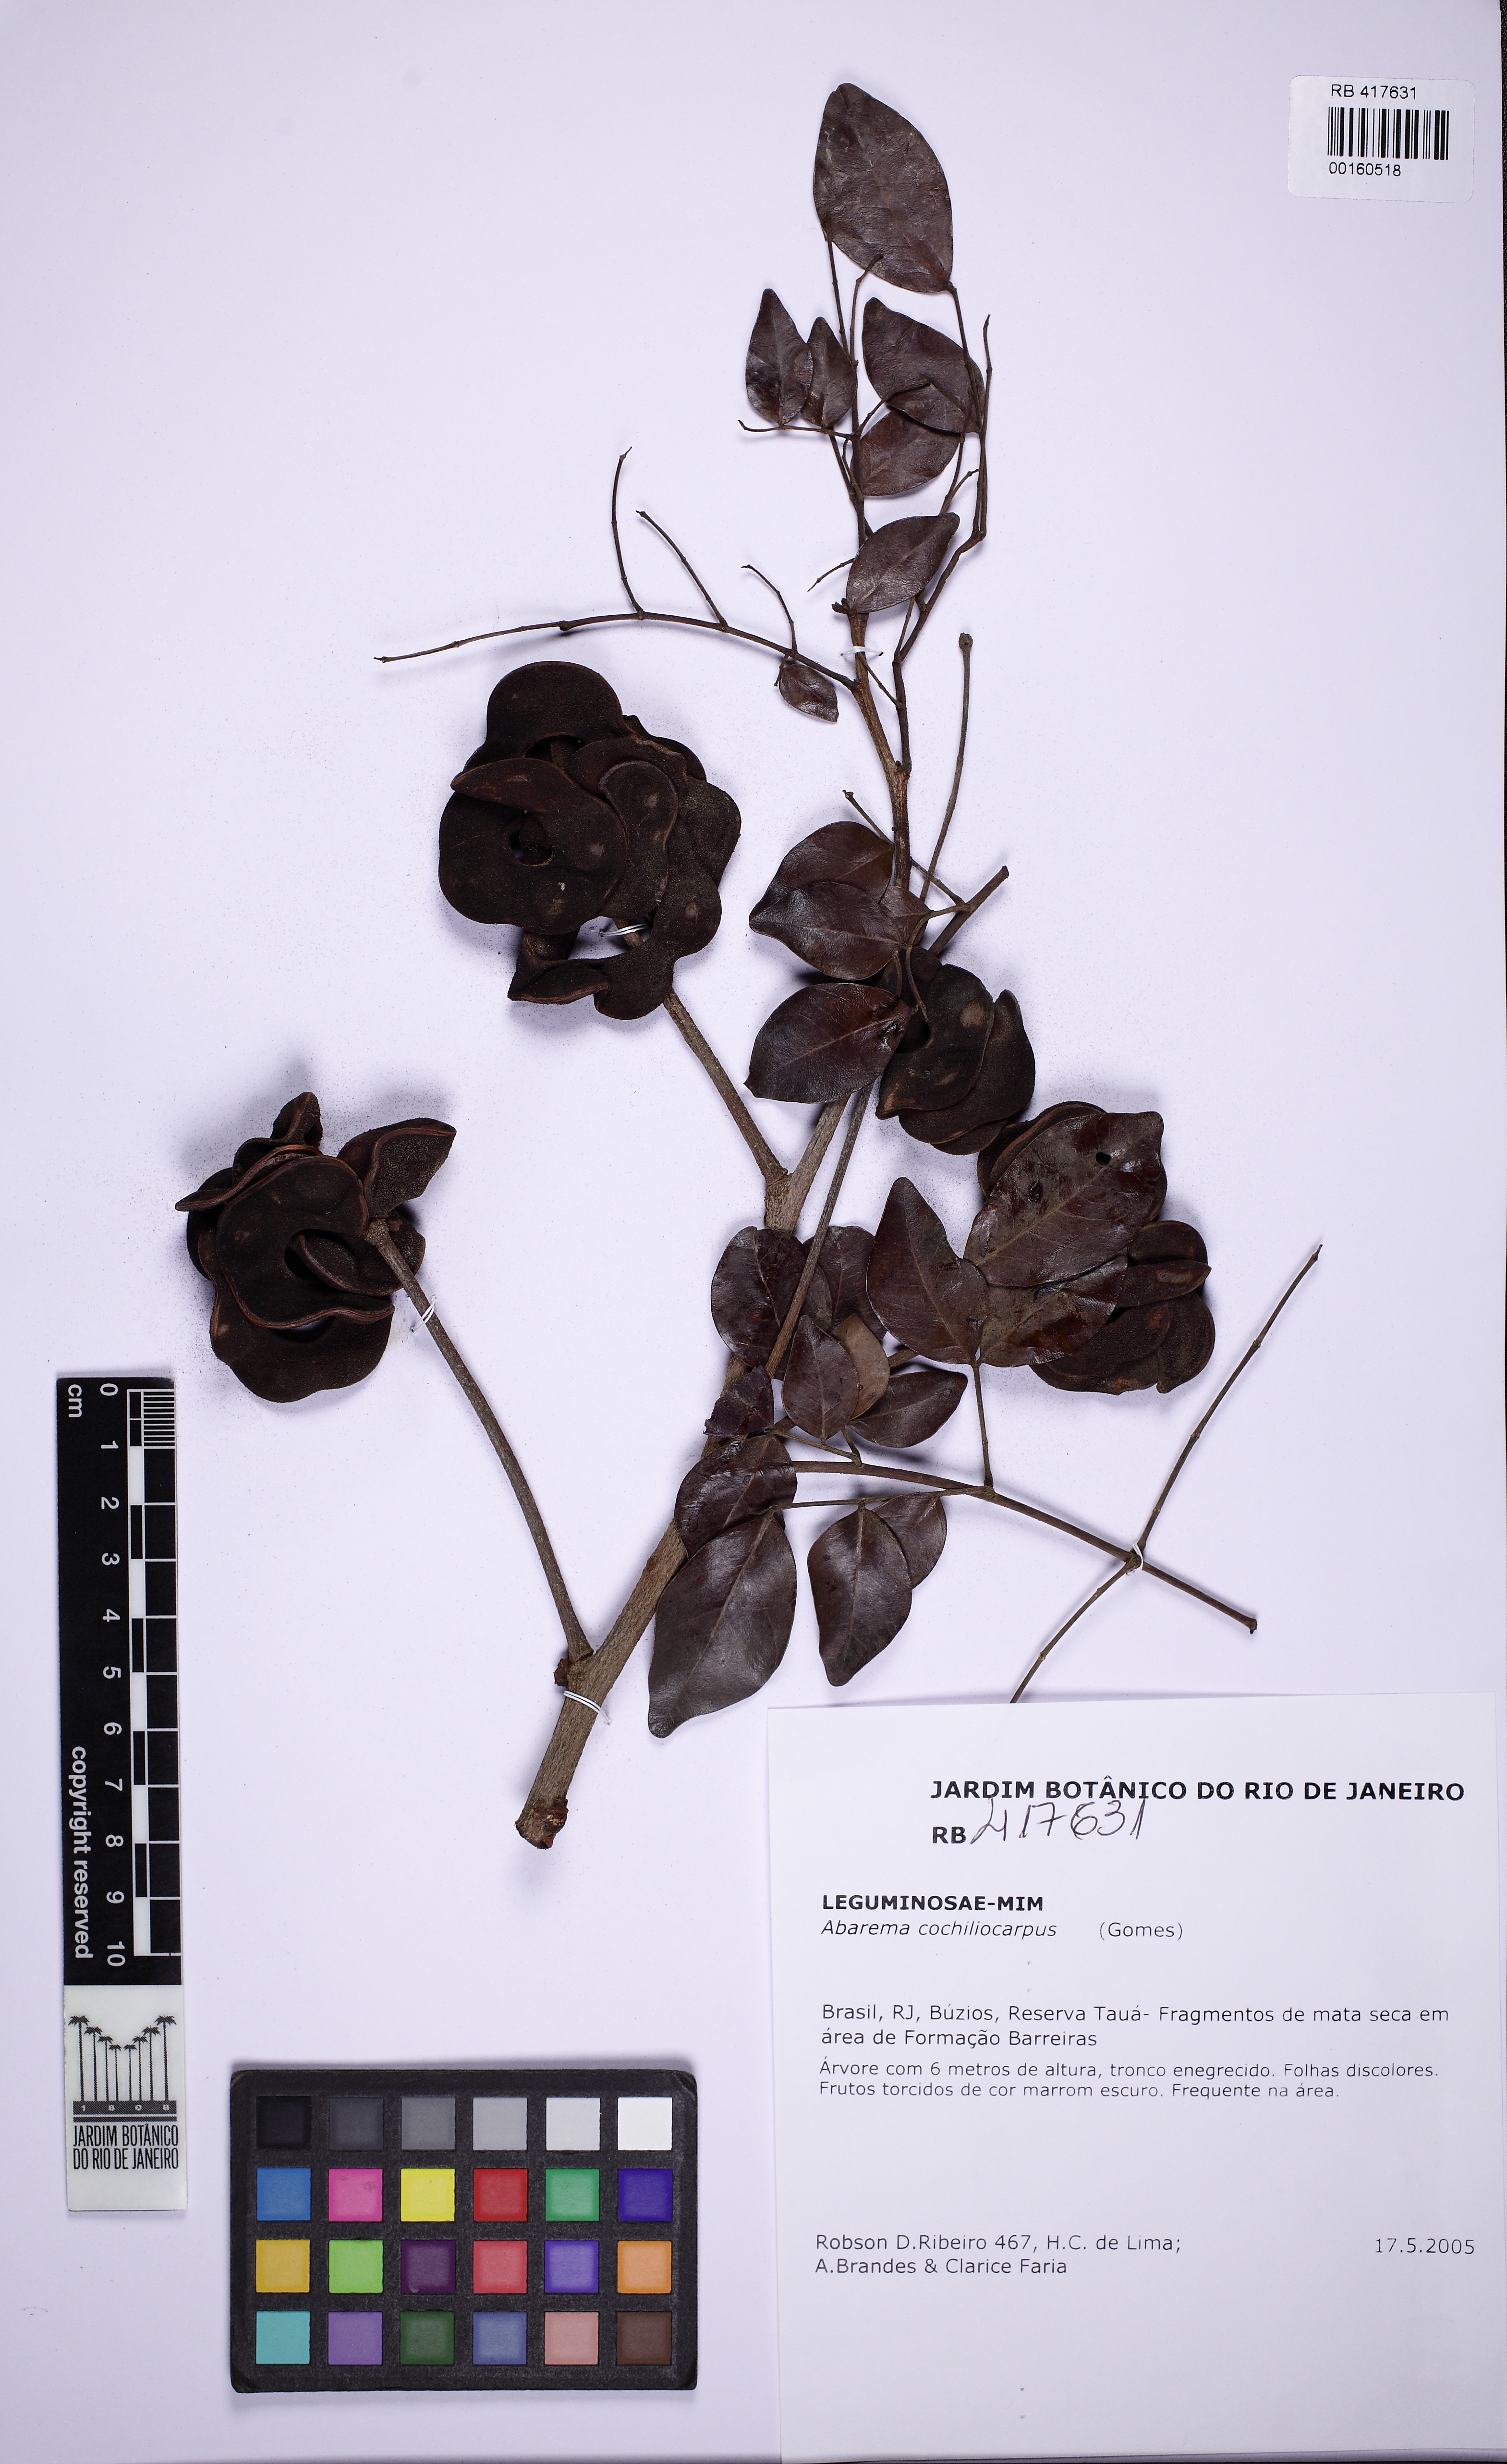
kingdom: Plantae
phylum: Tracheophyta
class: Magnoliopsida
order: Fabales
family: Fabaceae
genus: Abarema
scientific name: Abarema cochliacarpos
